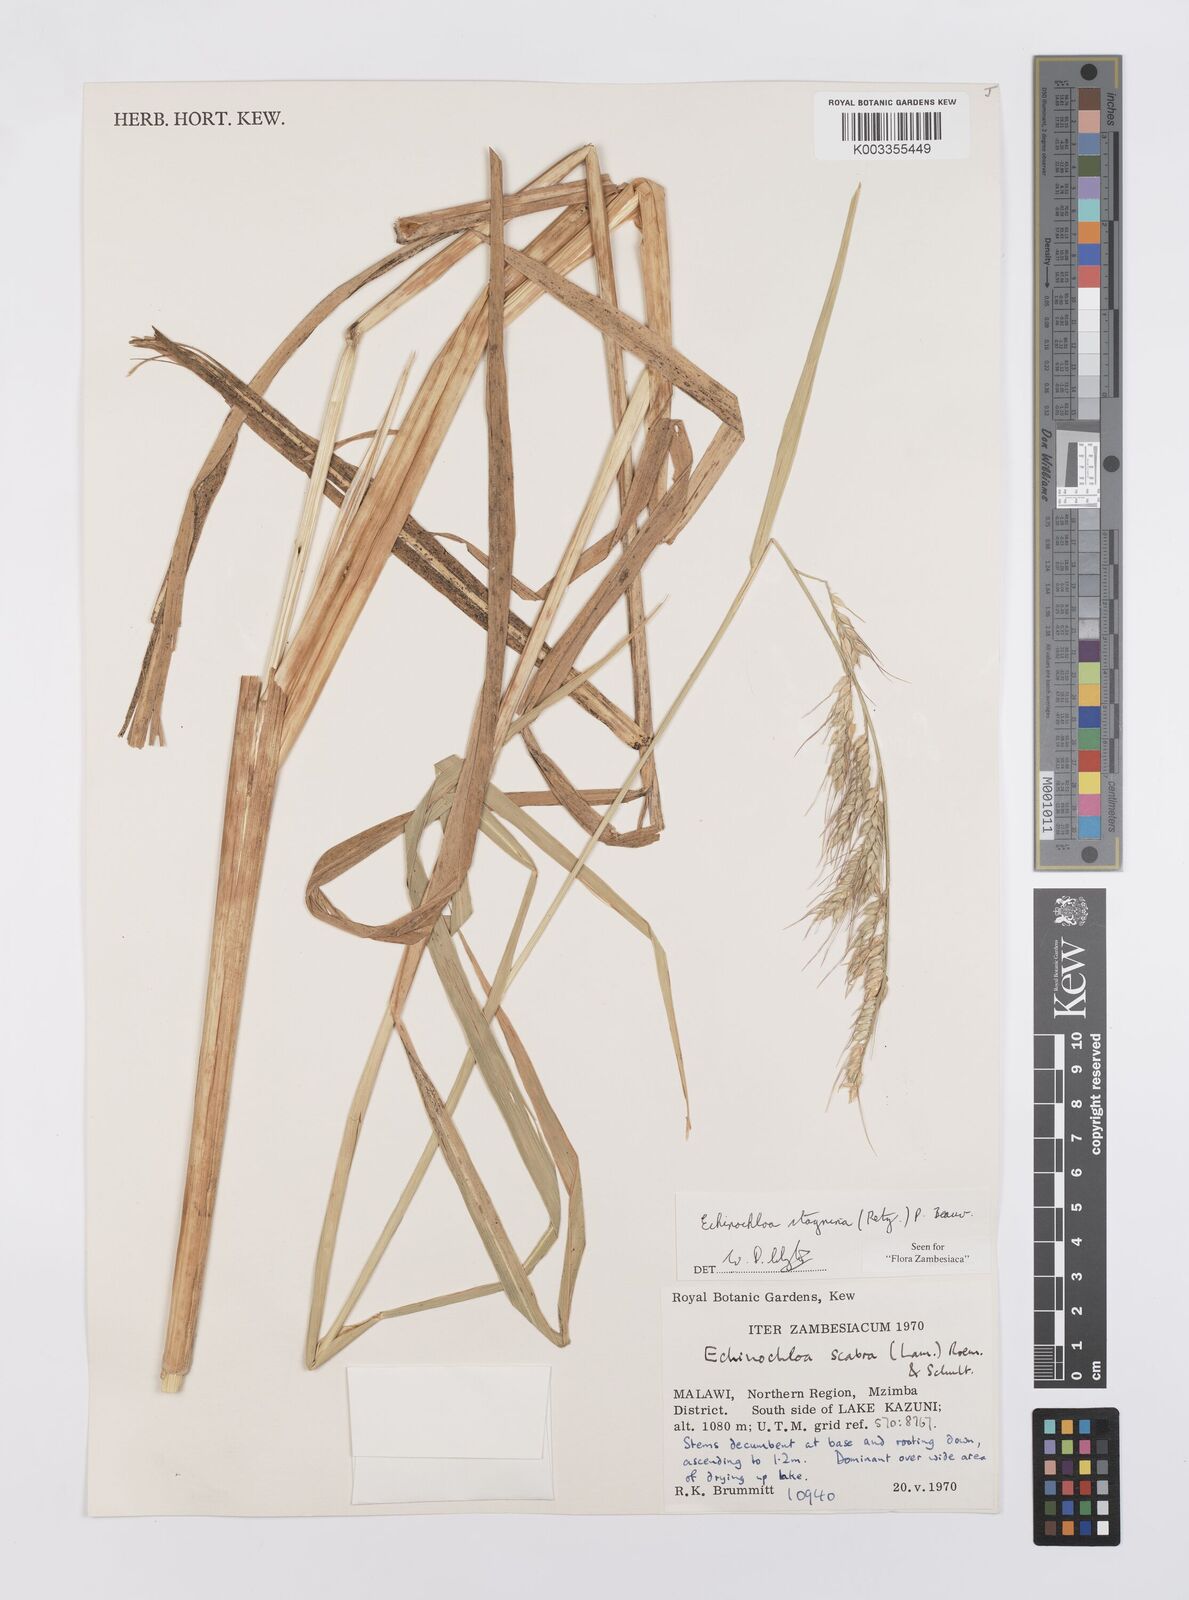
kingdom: Plantae
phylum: Tracheophyta
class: Liliopsida
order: Poales
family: Poaceae
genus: Echinochloa
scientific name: Echinochloa stagnina
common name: Burgu grass
